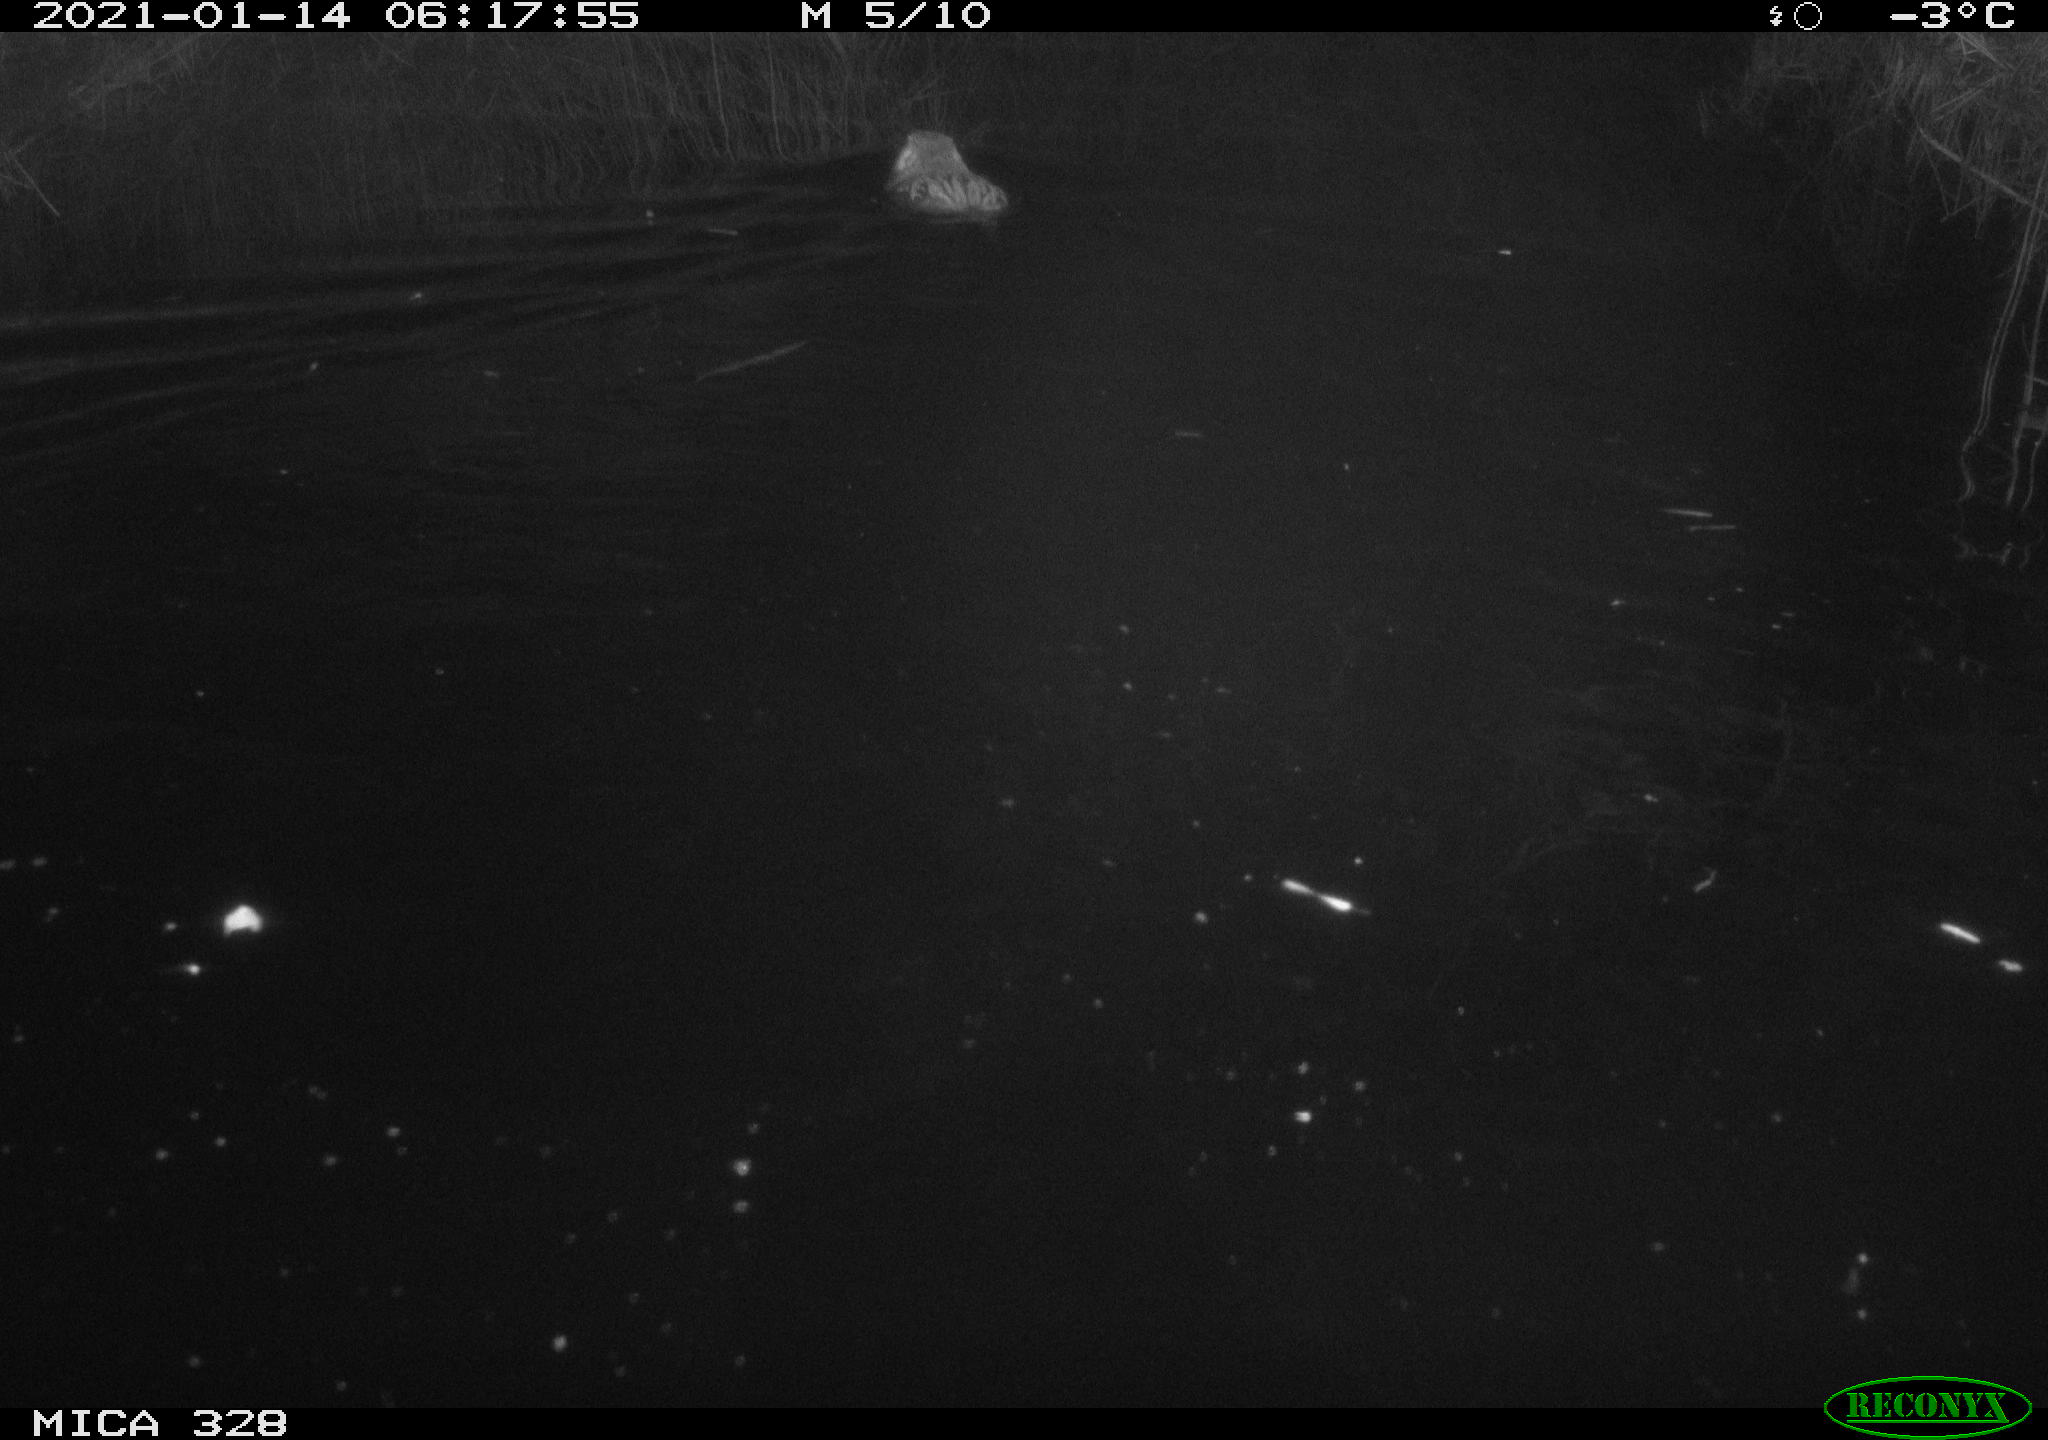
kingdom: Animalia
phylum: Chordata
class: Mammalia
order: Rodentia
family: Myocastoridae
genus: Myocastor
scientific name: Myocastor coypus
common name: Coypu
